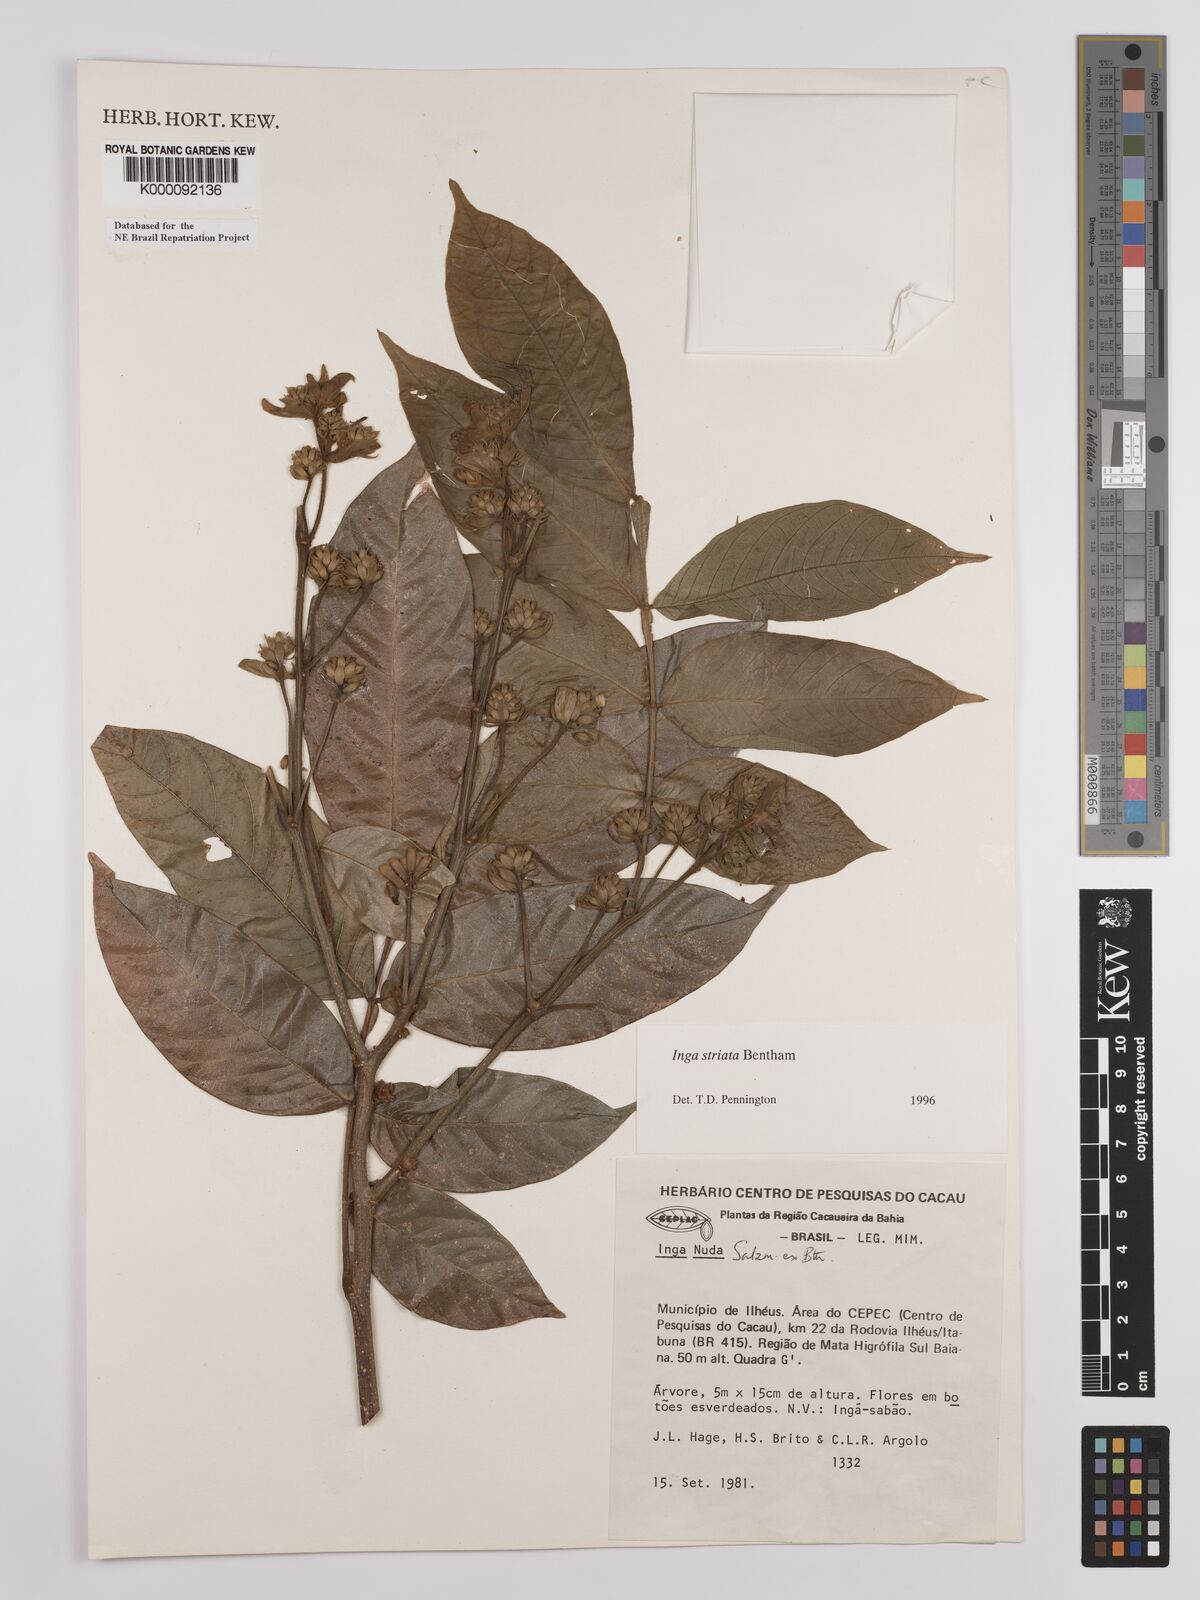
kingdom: Plantae
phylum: Tracheophyta
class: Magnoliopsida
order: Fabales
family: Fabaceae
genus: Inga
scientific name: Inga striata
